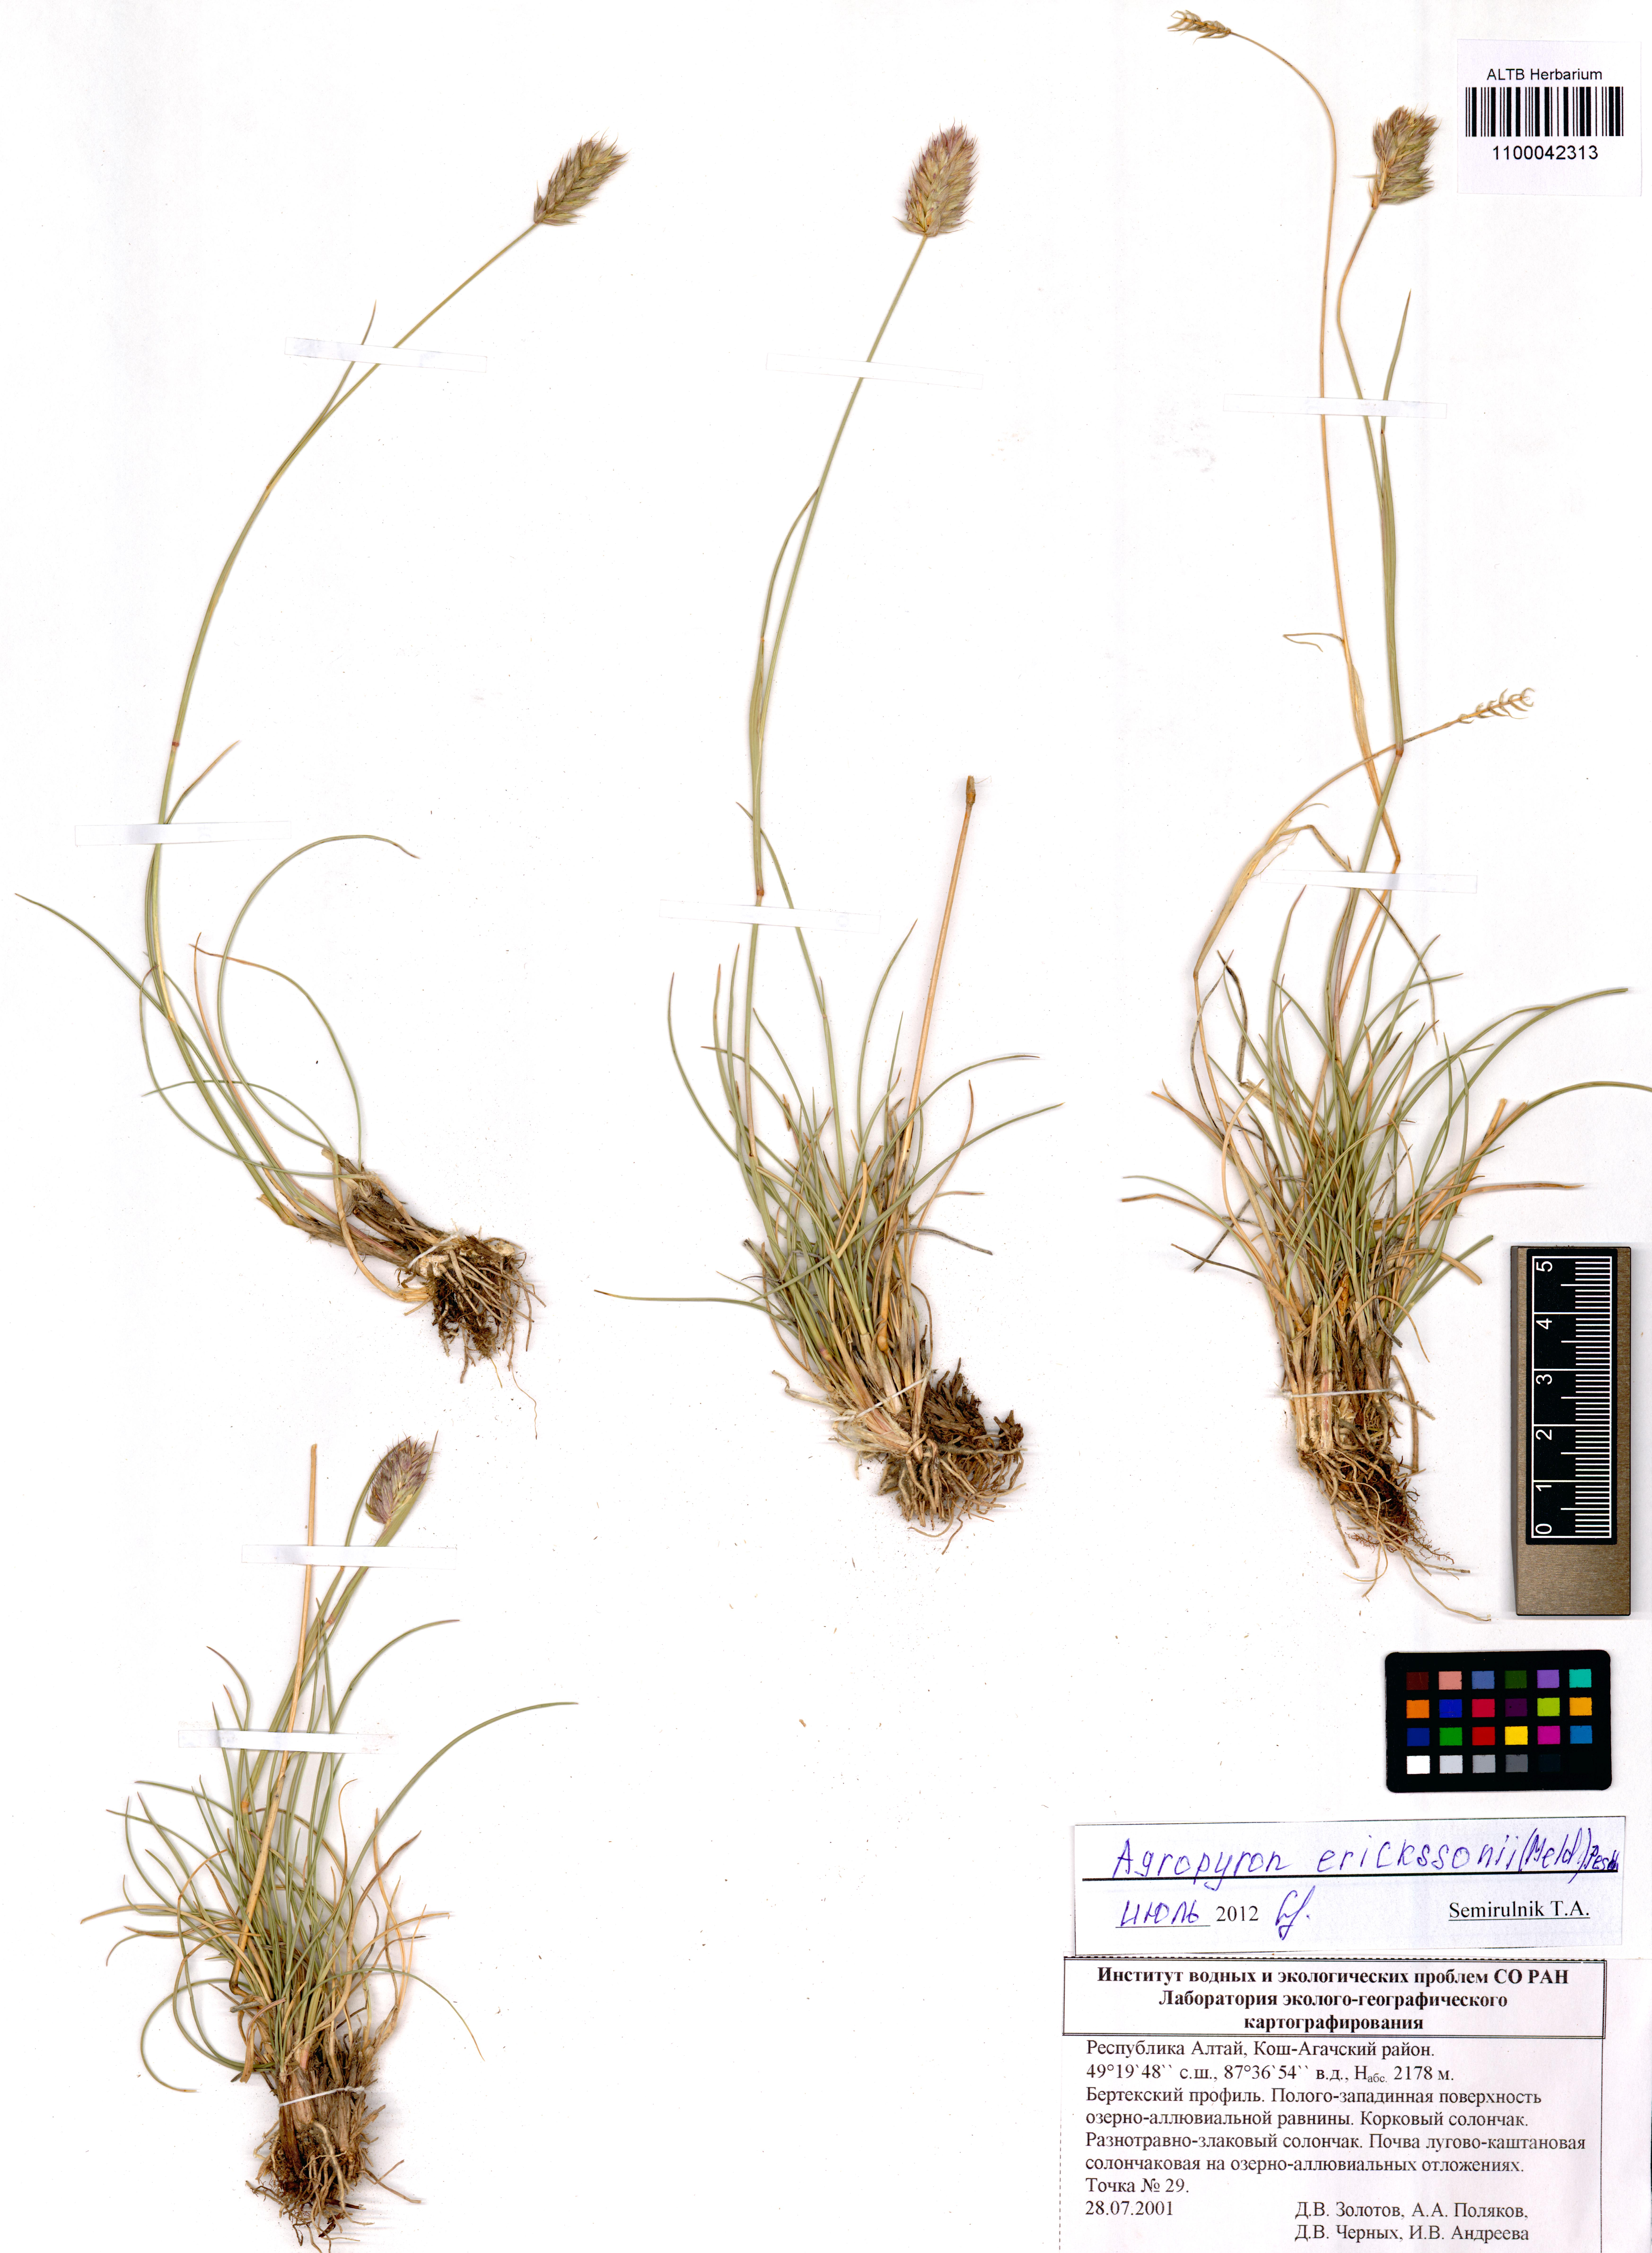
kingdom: Plantae
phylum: Tracheophyta
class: Liliopsida
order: Poales
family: Poaceae
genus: Agropyron
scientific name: Agropyron cristatum
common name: Crested wheatgrass
